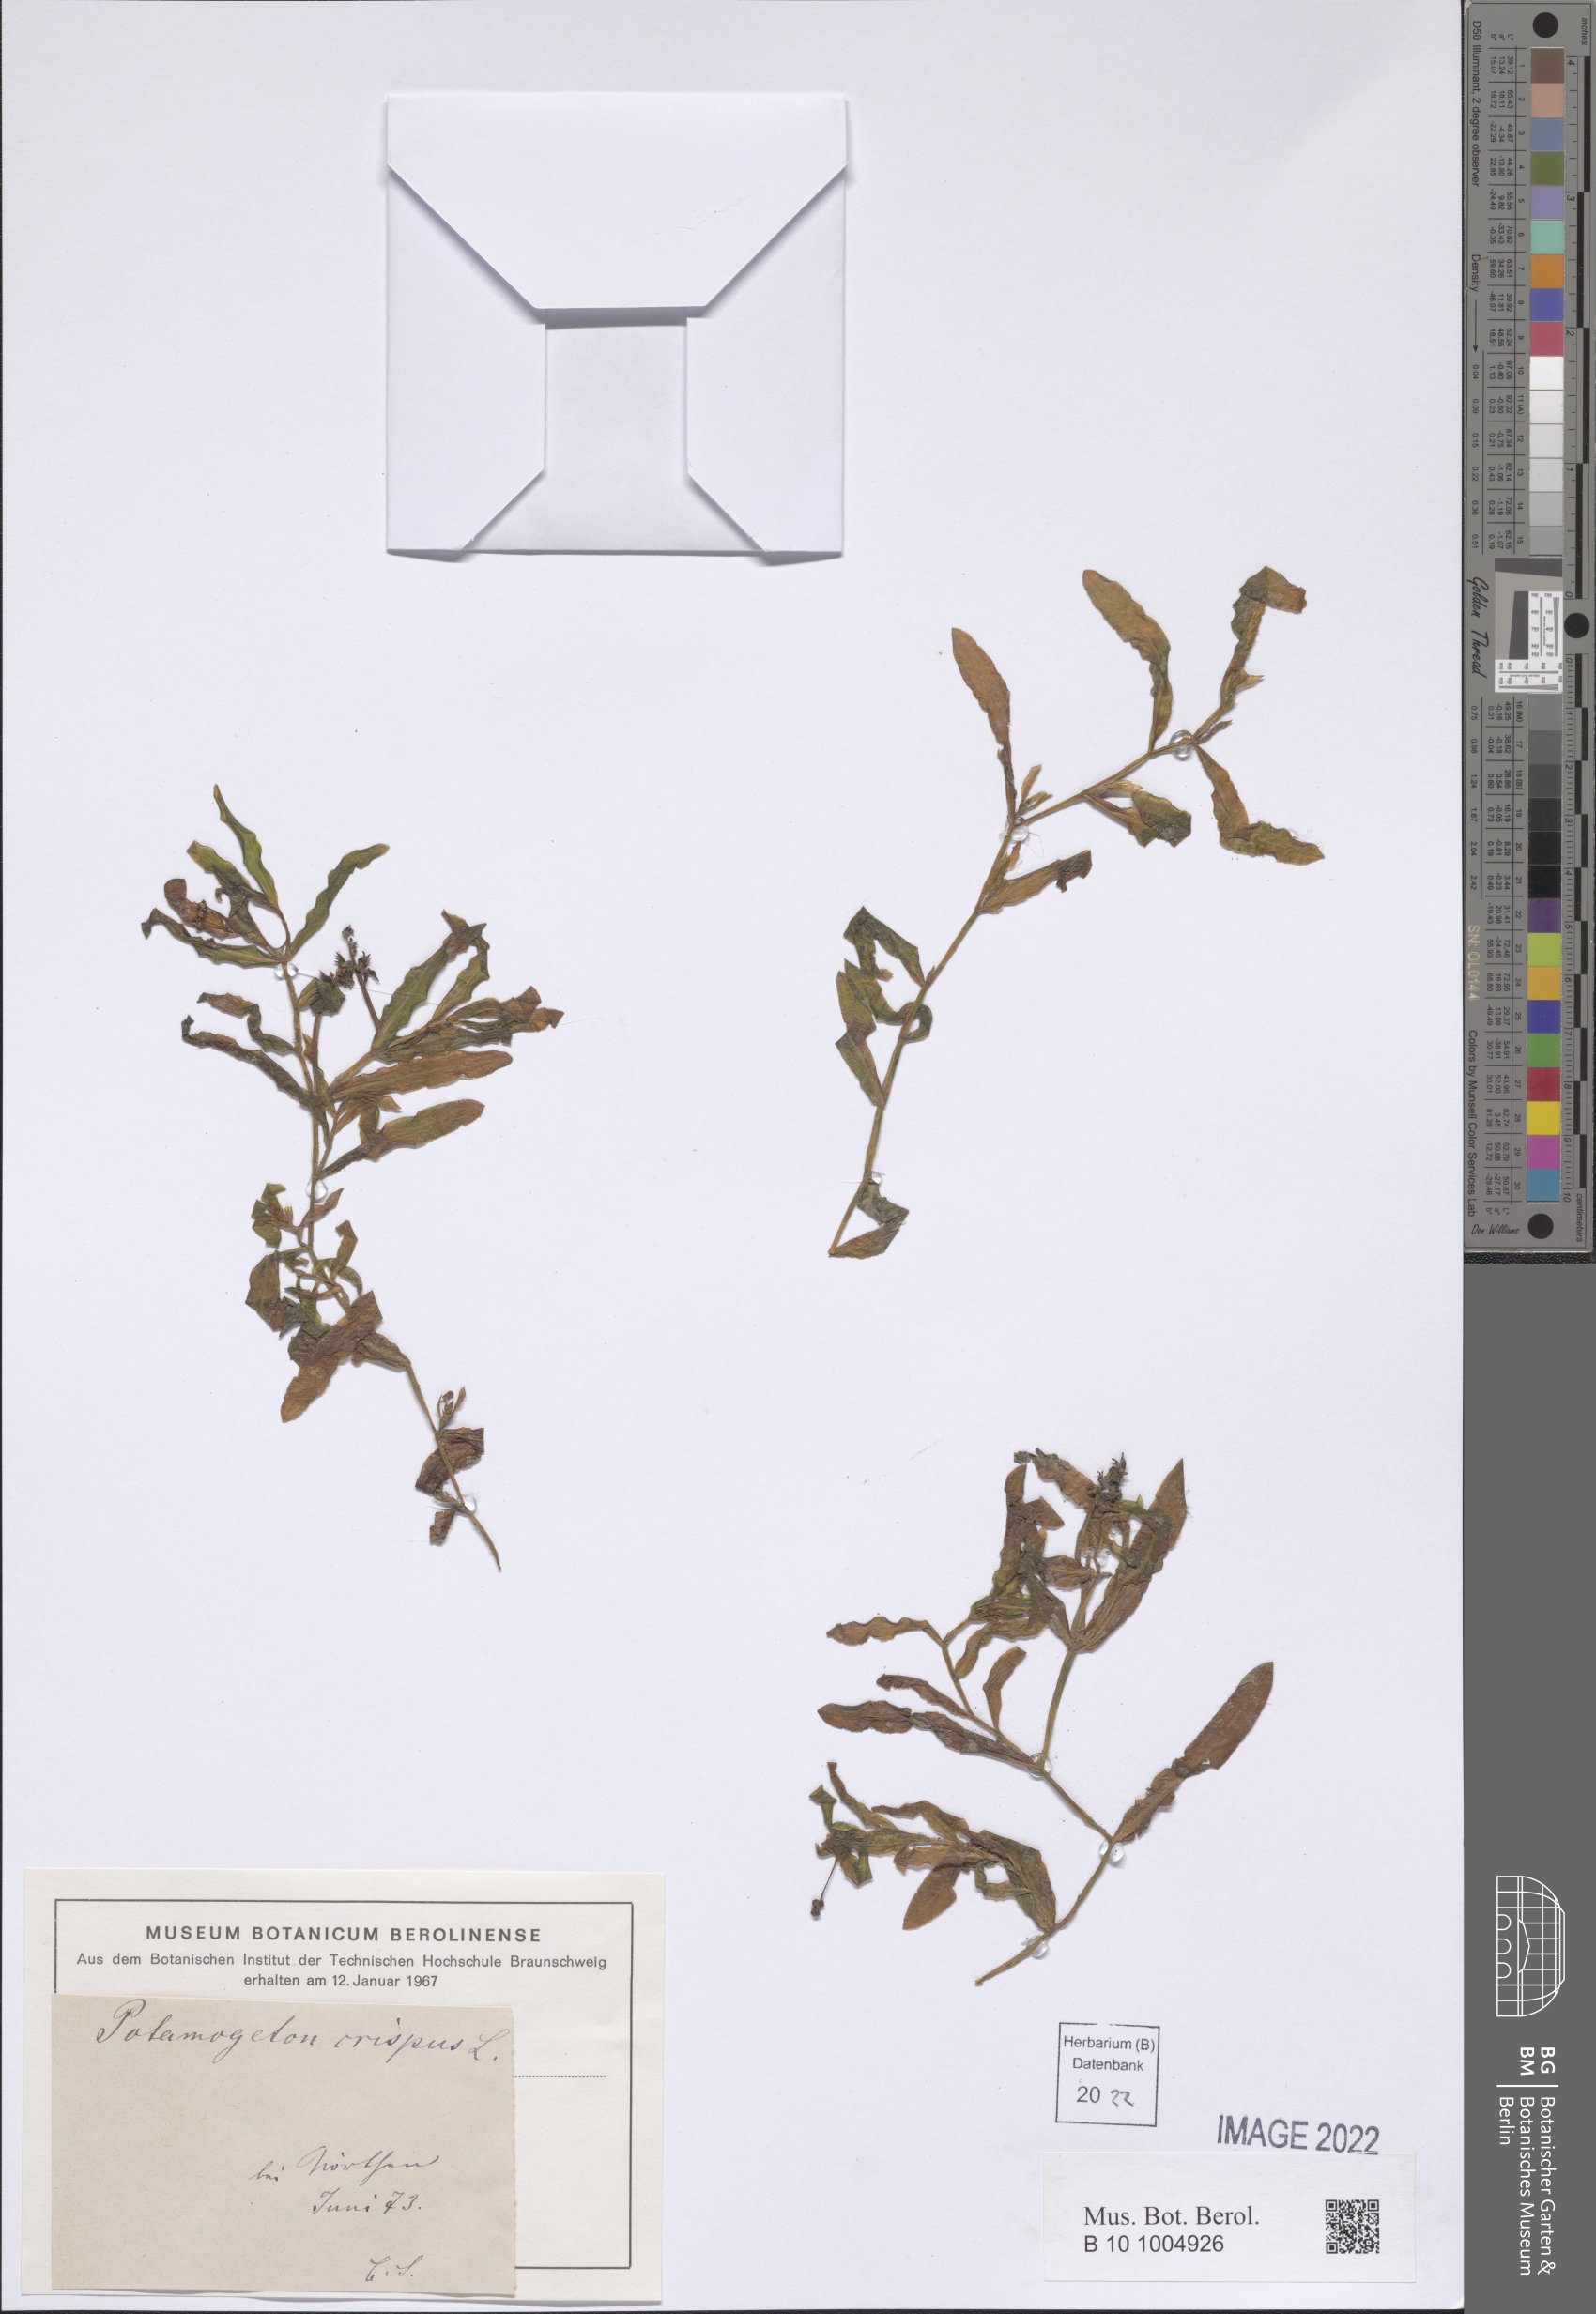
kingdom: Plantae
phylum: Tracheophyta
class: Liliopsida
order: Alismatales
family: Potamogetonaceae
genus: Potamogeton
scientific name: Potamogeton crispus
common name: Curled pondweed
